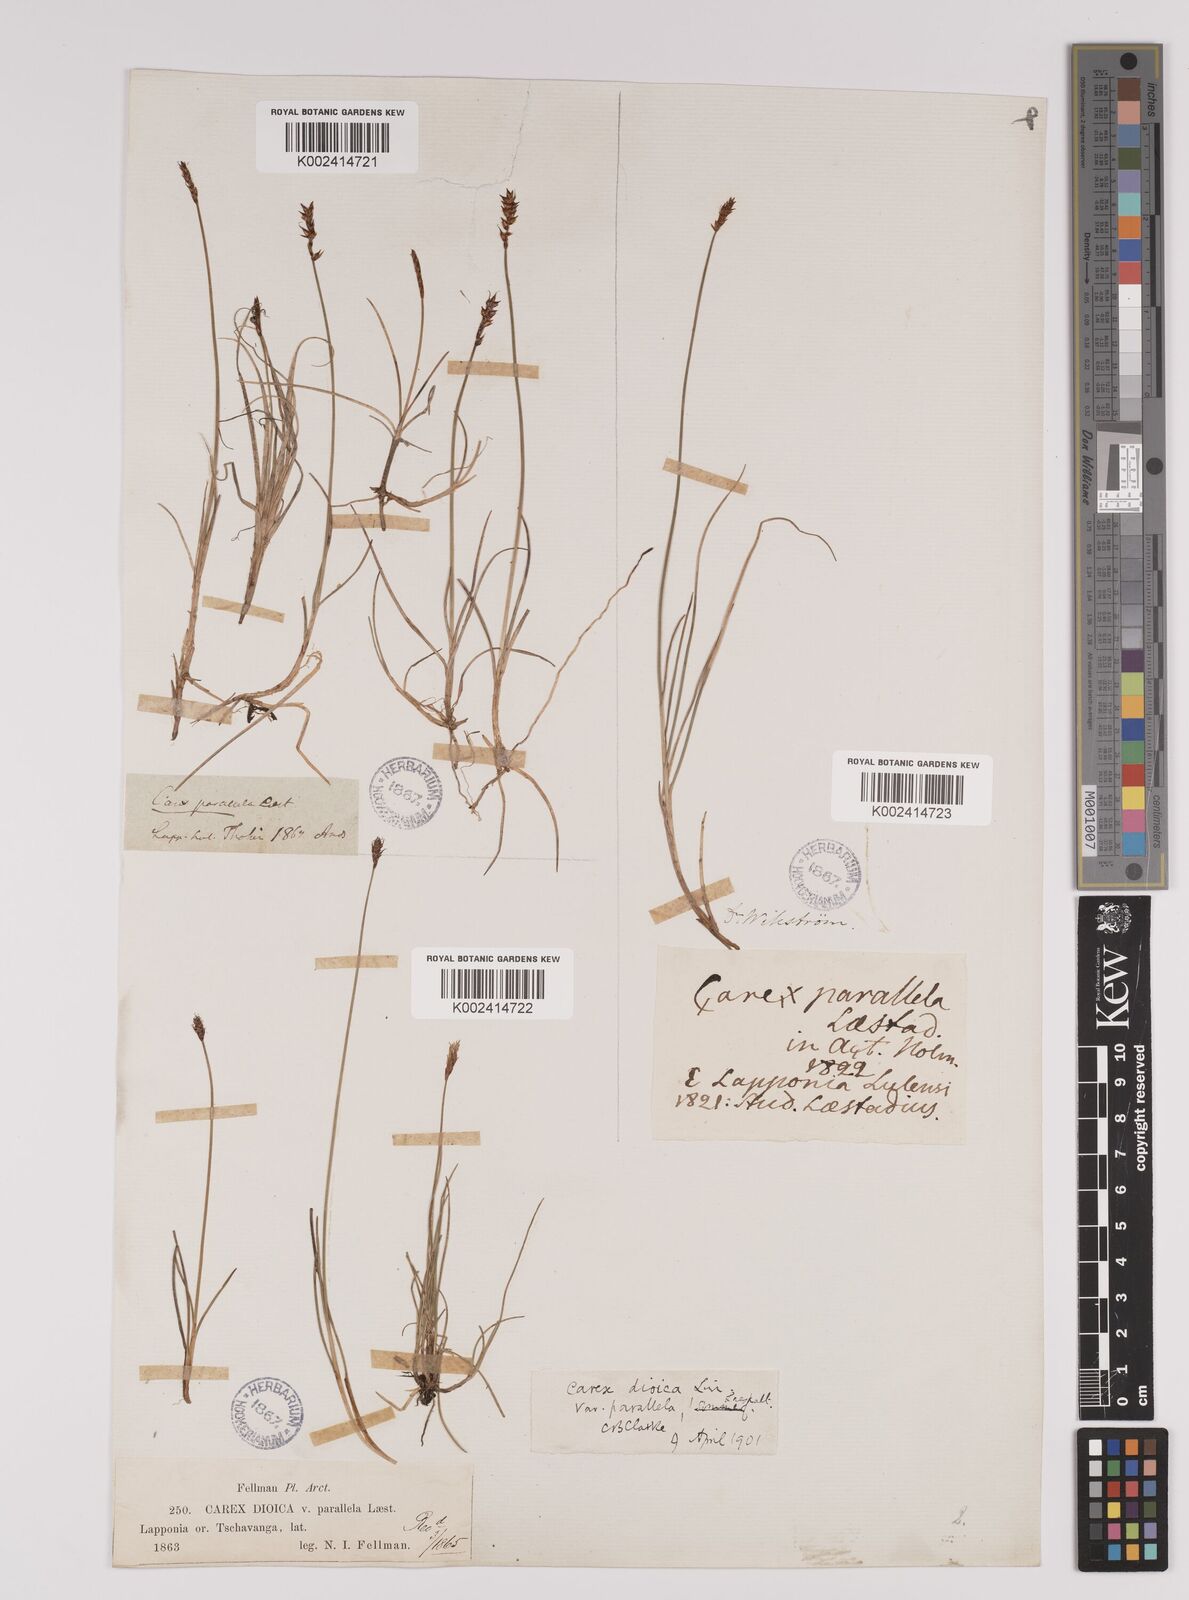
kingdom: Plantae
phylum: Tracheophyta
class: Liliopsida
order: Poales
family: Cyperaceae
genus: Carex
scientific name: Carex parallela
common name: Parallel sedge
